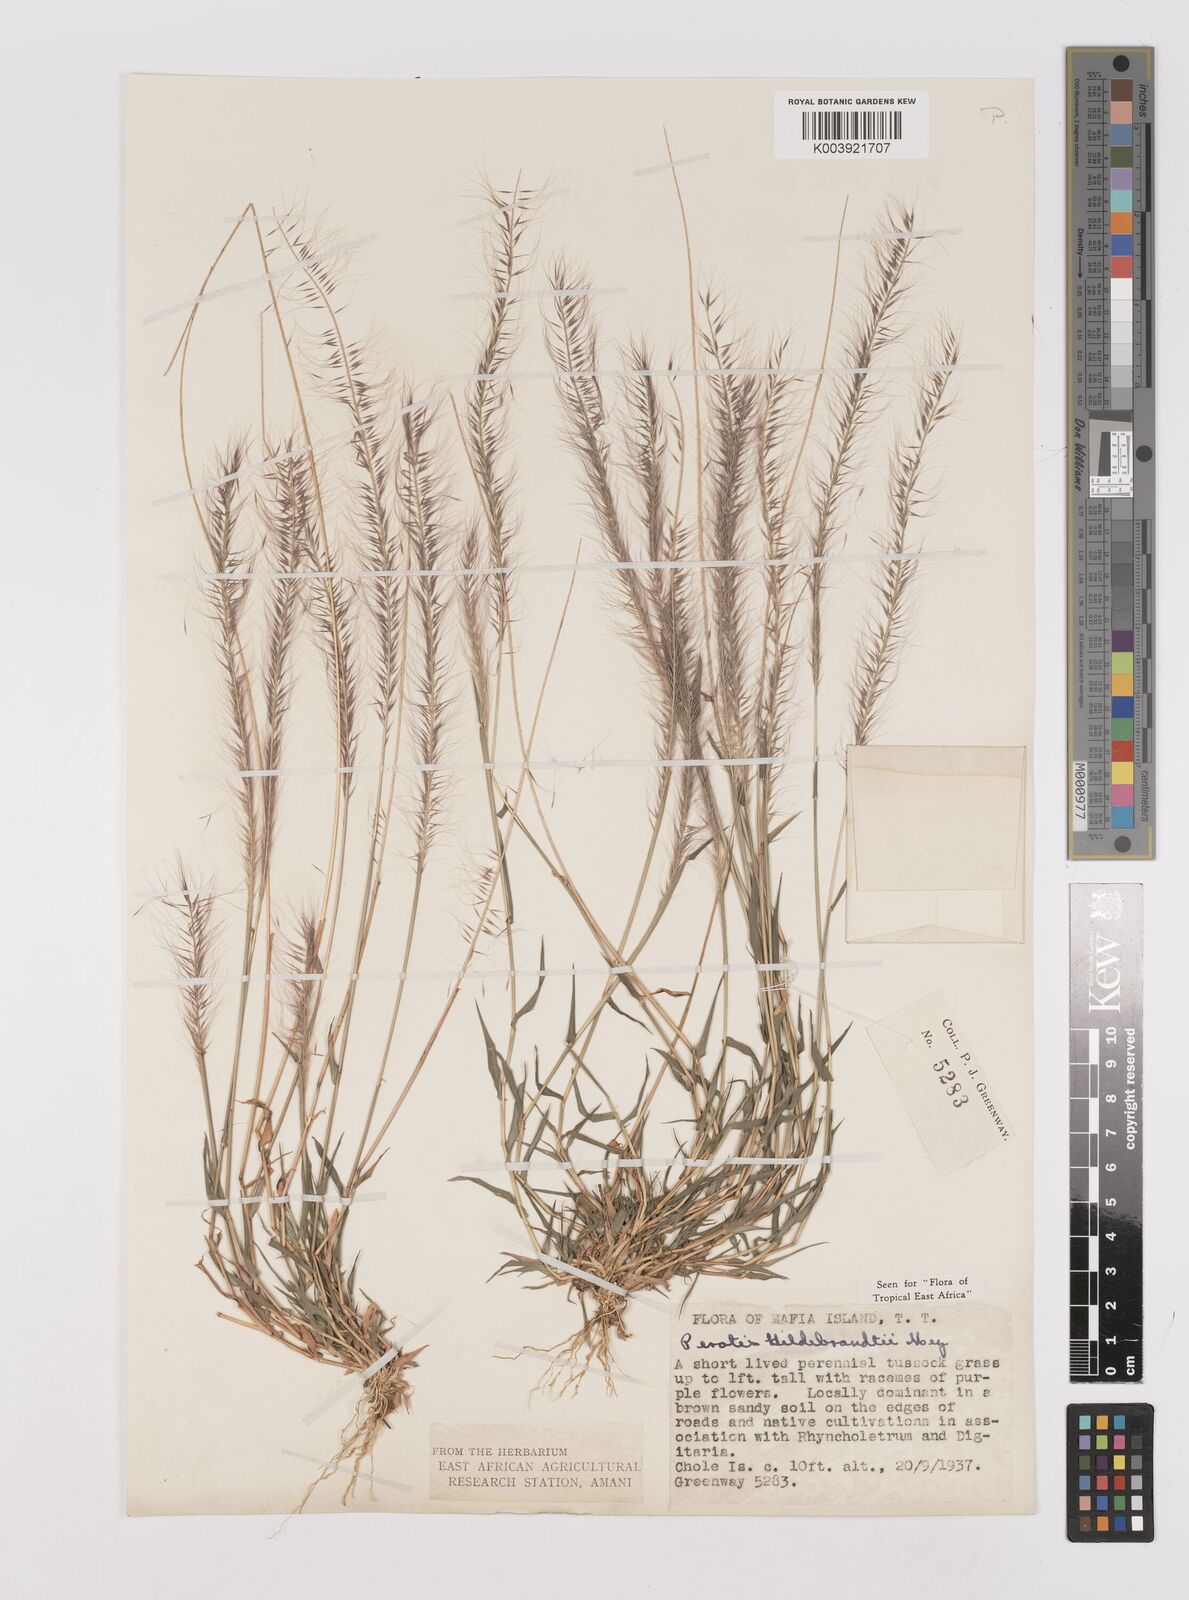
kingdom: Plantae
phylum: Tracheophyta
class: Liliopsida
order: Poales
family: Poaceae
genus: Perotis
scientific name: Perotis hildebrandtii
